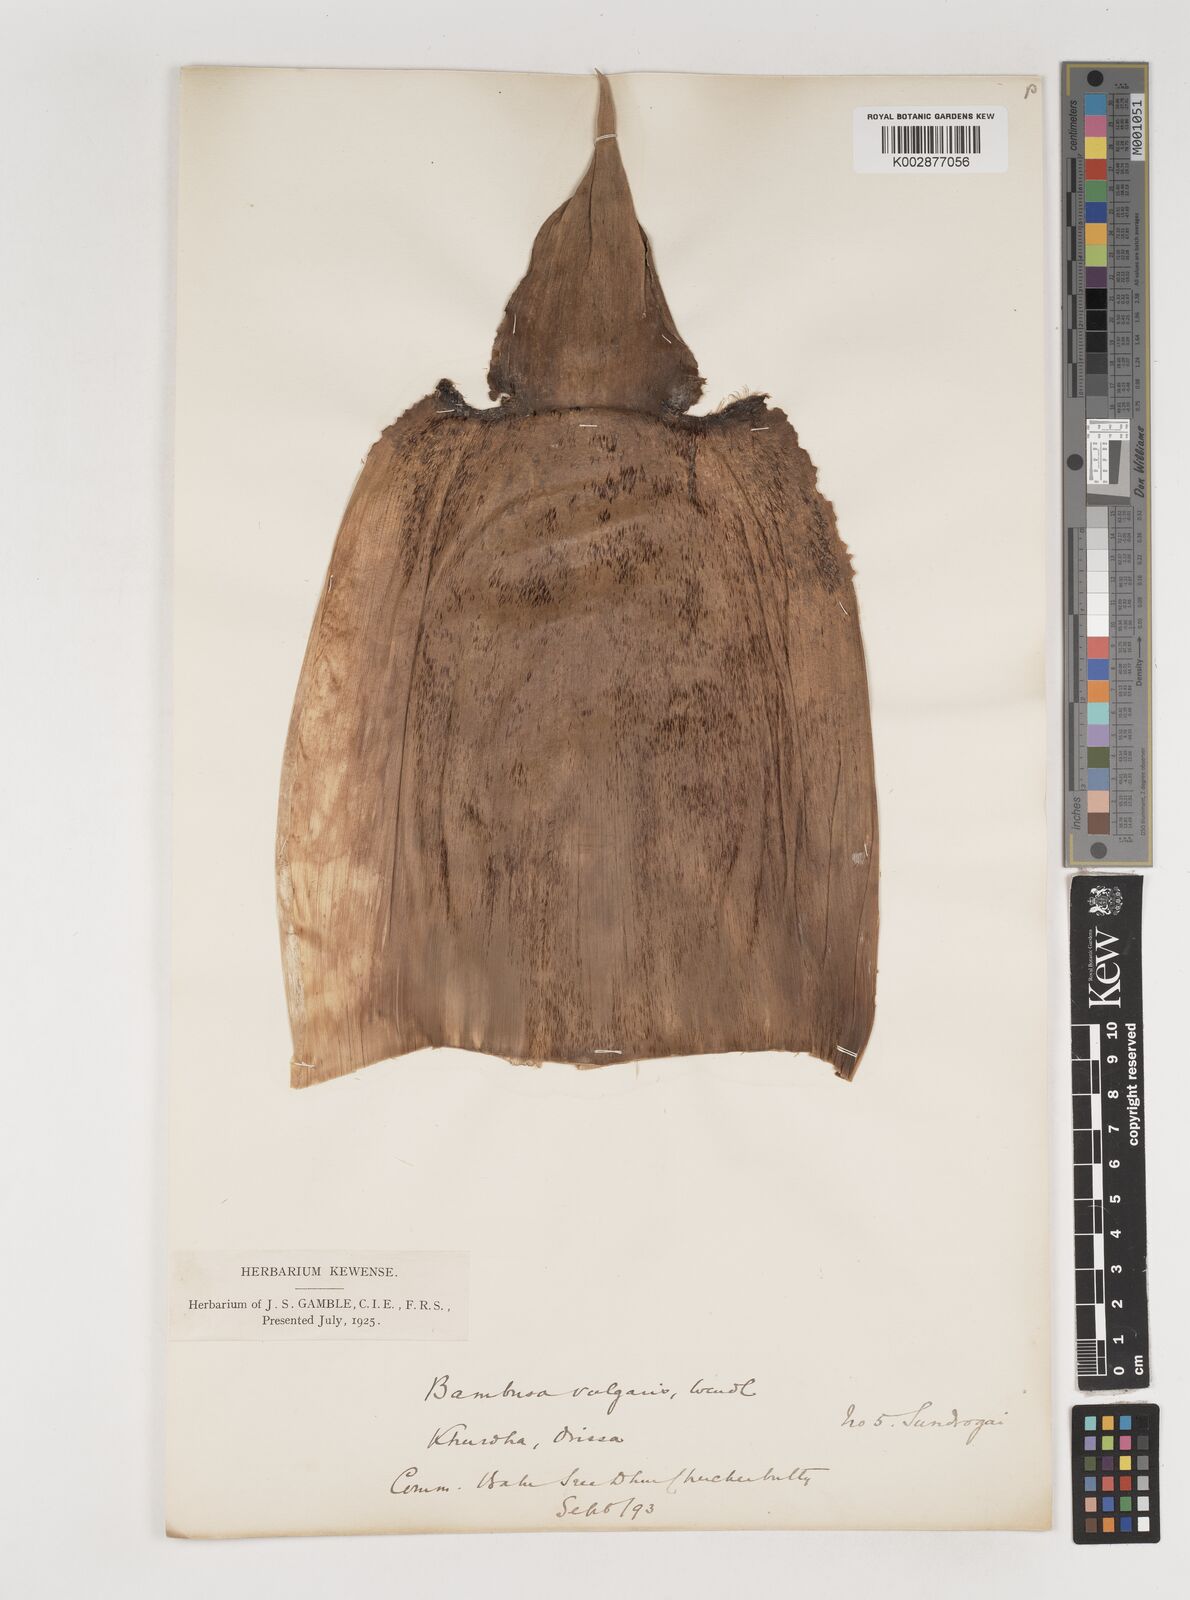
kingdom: Plantae
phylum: Tracheophyta
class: Liliopsida
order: Poales
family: Poaceae
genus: Bambusa
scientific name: Bambusa vulgaris
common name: Common bamboo
